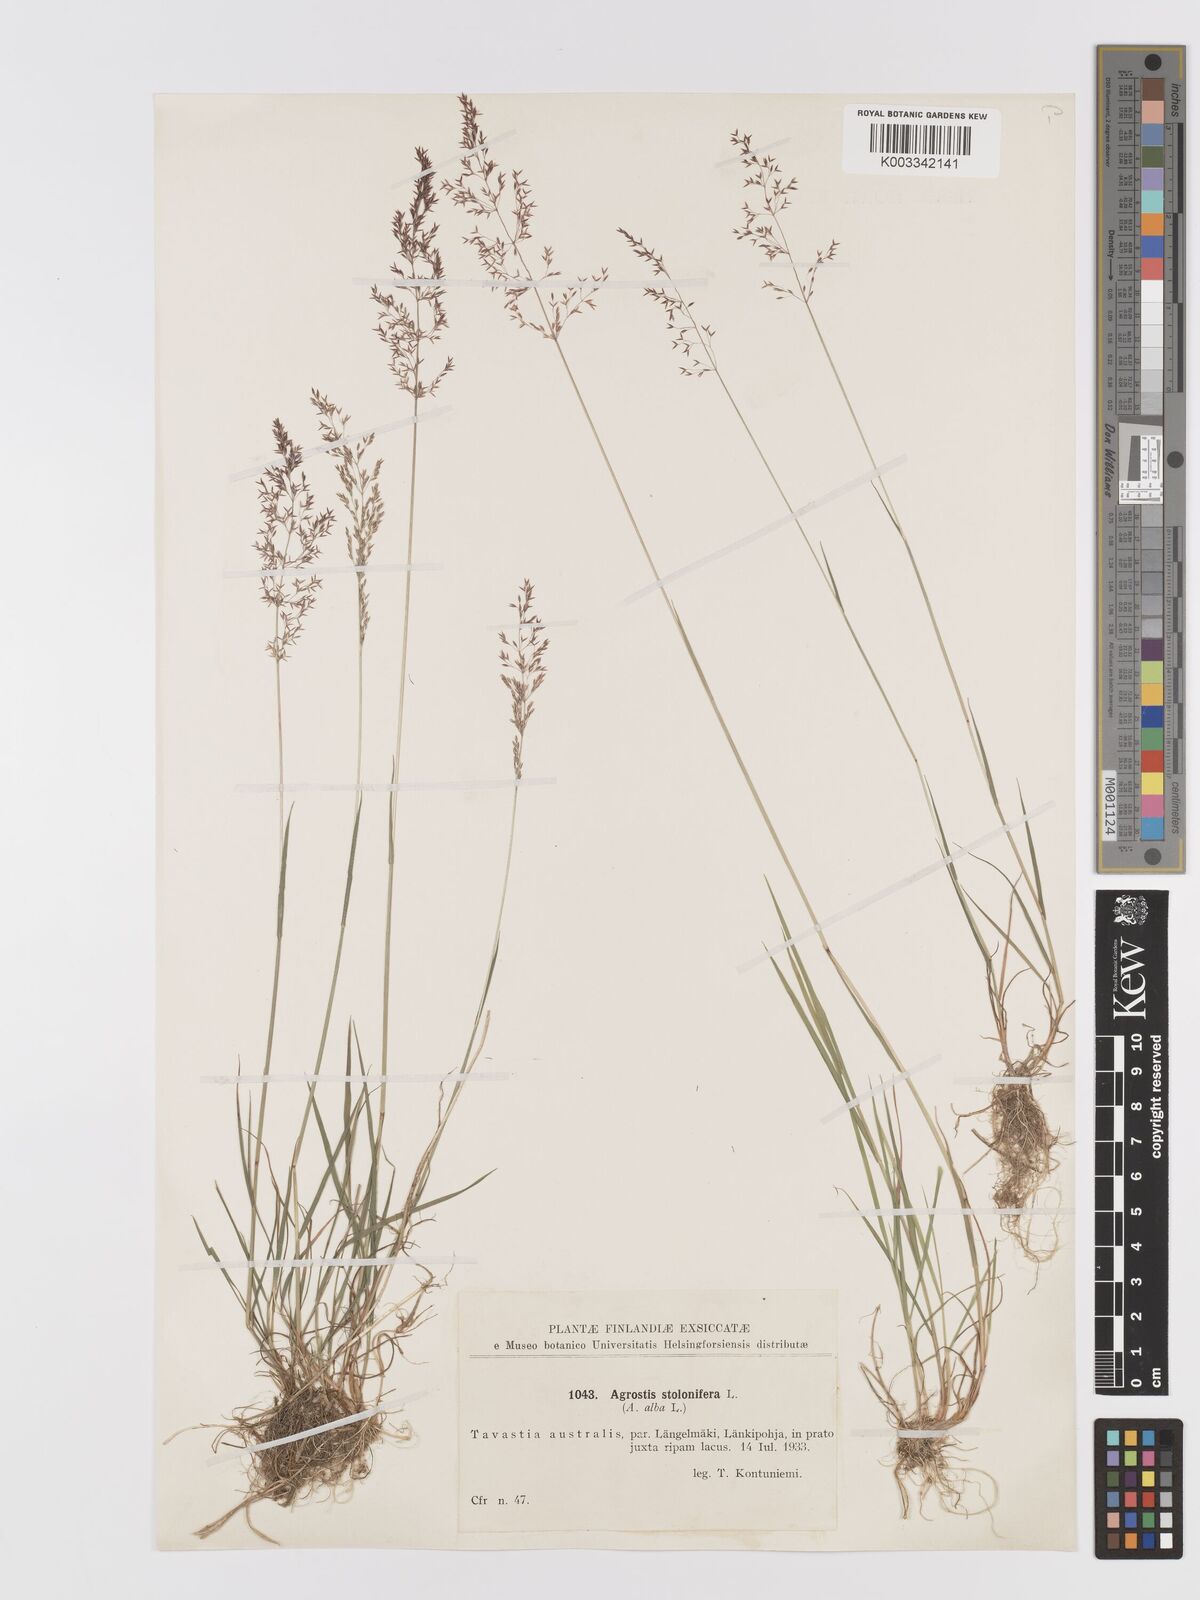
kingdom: Plantae
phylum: Tracheophyta
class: Liliopsida
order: Poales
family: Poaceae
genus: Agrostis
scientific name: Agrostis stolonifera
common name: Creeping bentgrass
